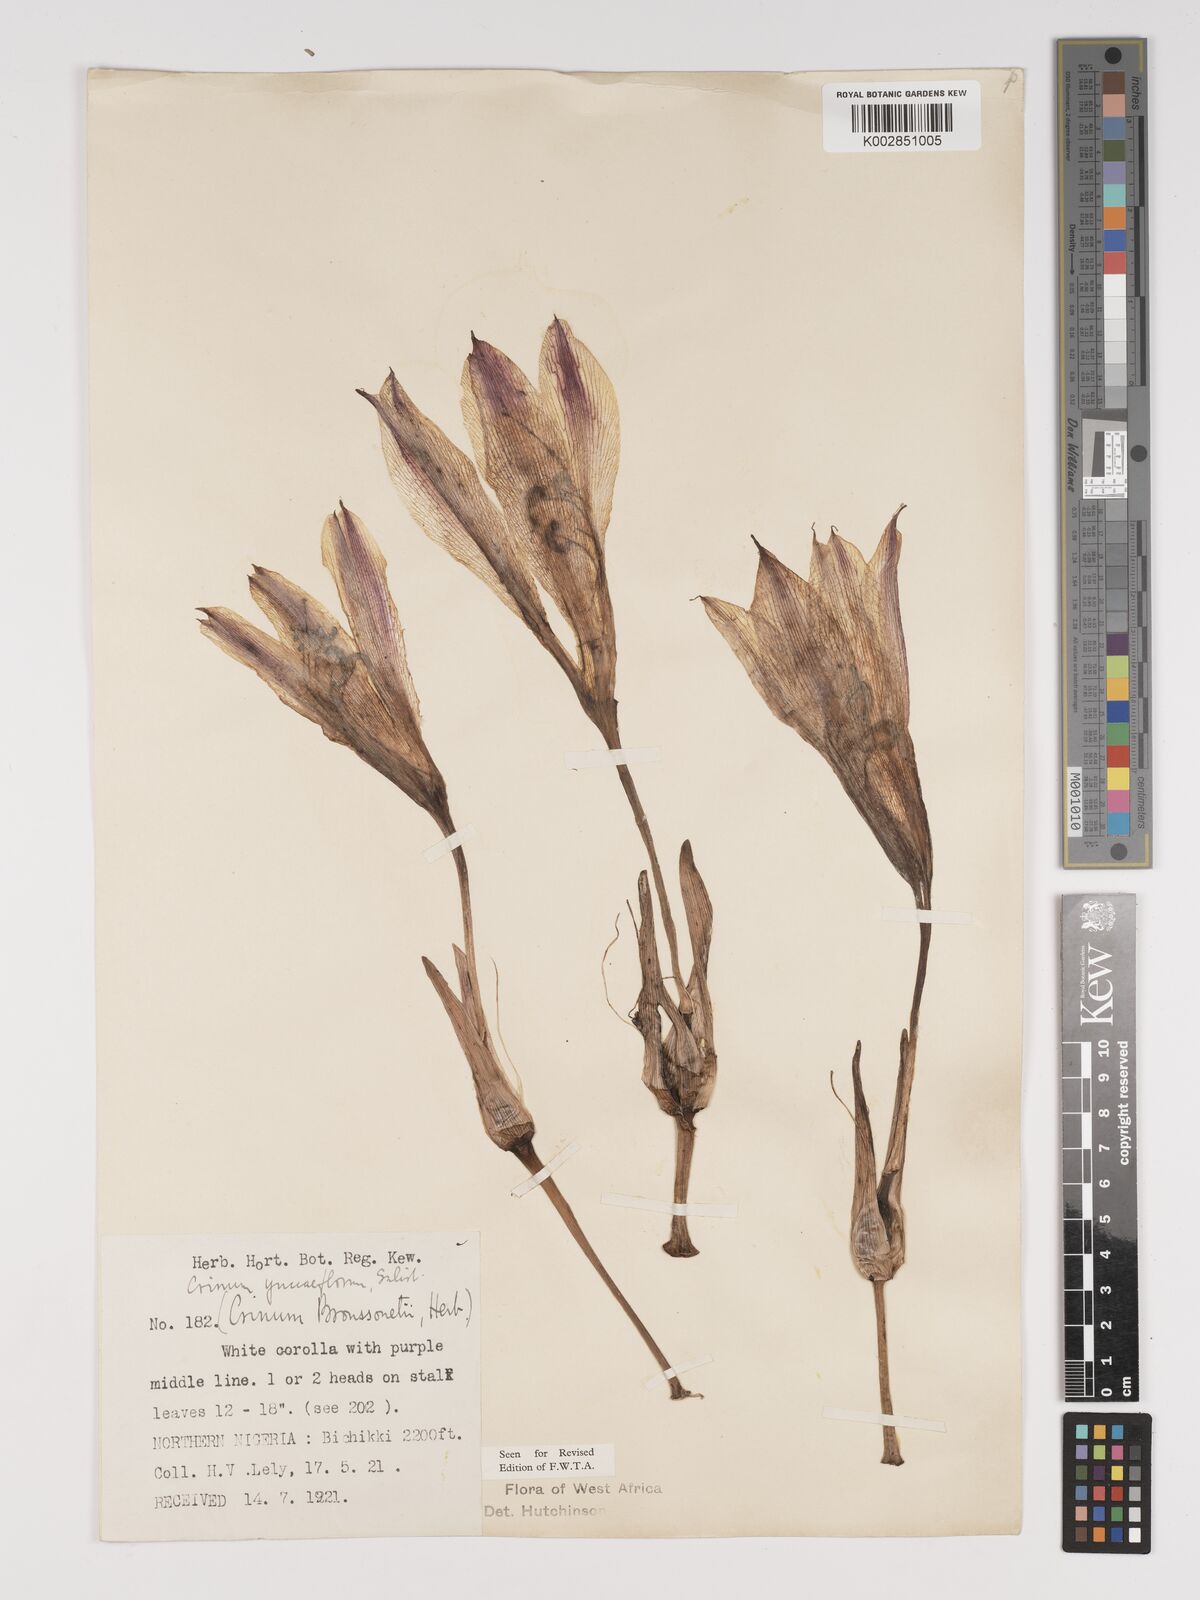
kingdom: Plantae
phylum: Tracheophyta
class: Liliopsida
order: Asparagales
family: Amaryllidaceae
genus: Crinum
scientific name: Crinum zeylanicum
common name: Ceylon swamplily
